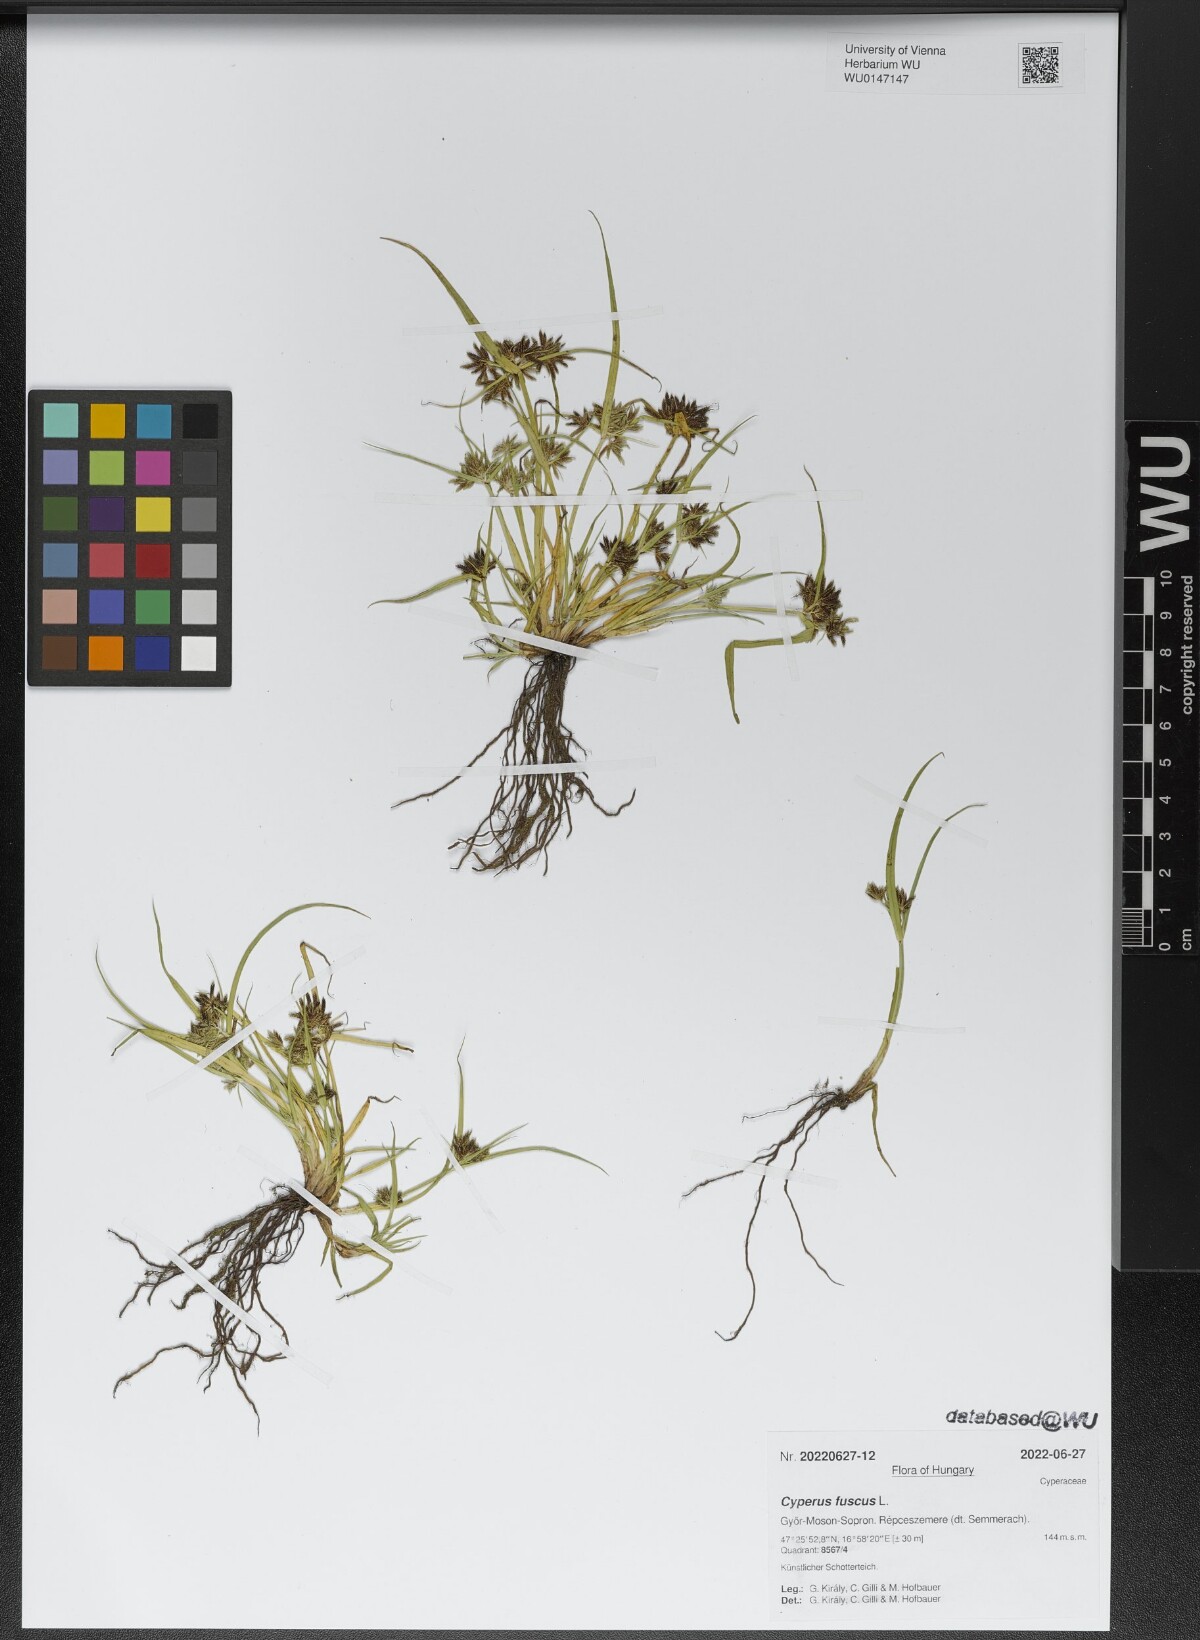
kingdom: Plantae
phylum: Tracheophyta
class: Liliopsida
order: Poales
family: Cyperaceae
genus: Cyperus
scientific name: Cyperus fuscus
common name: Brown galingale
